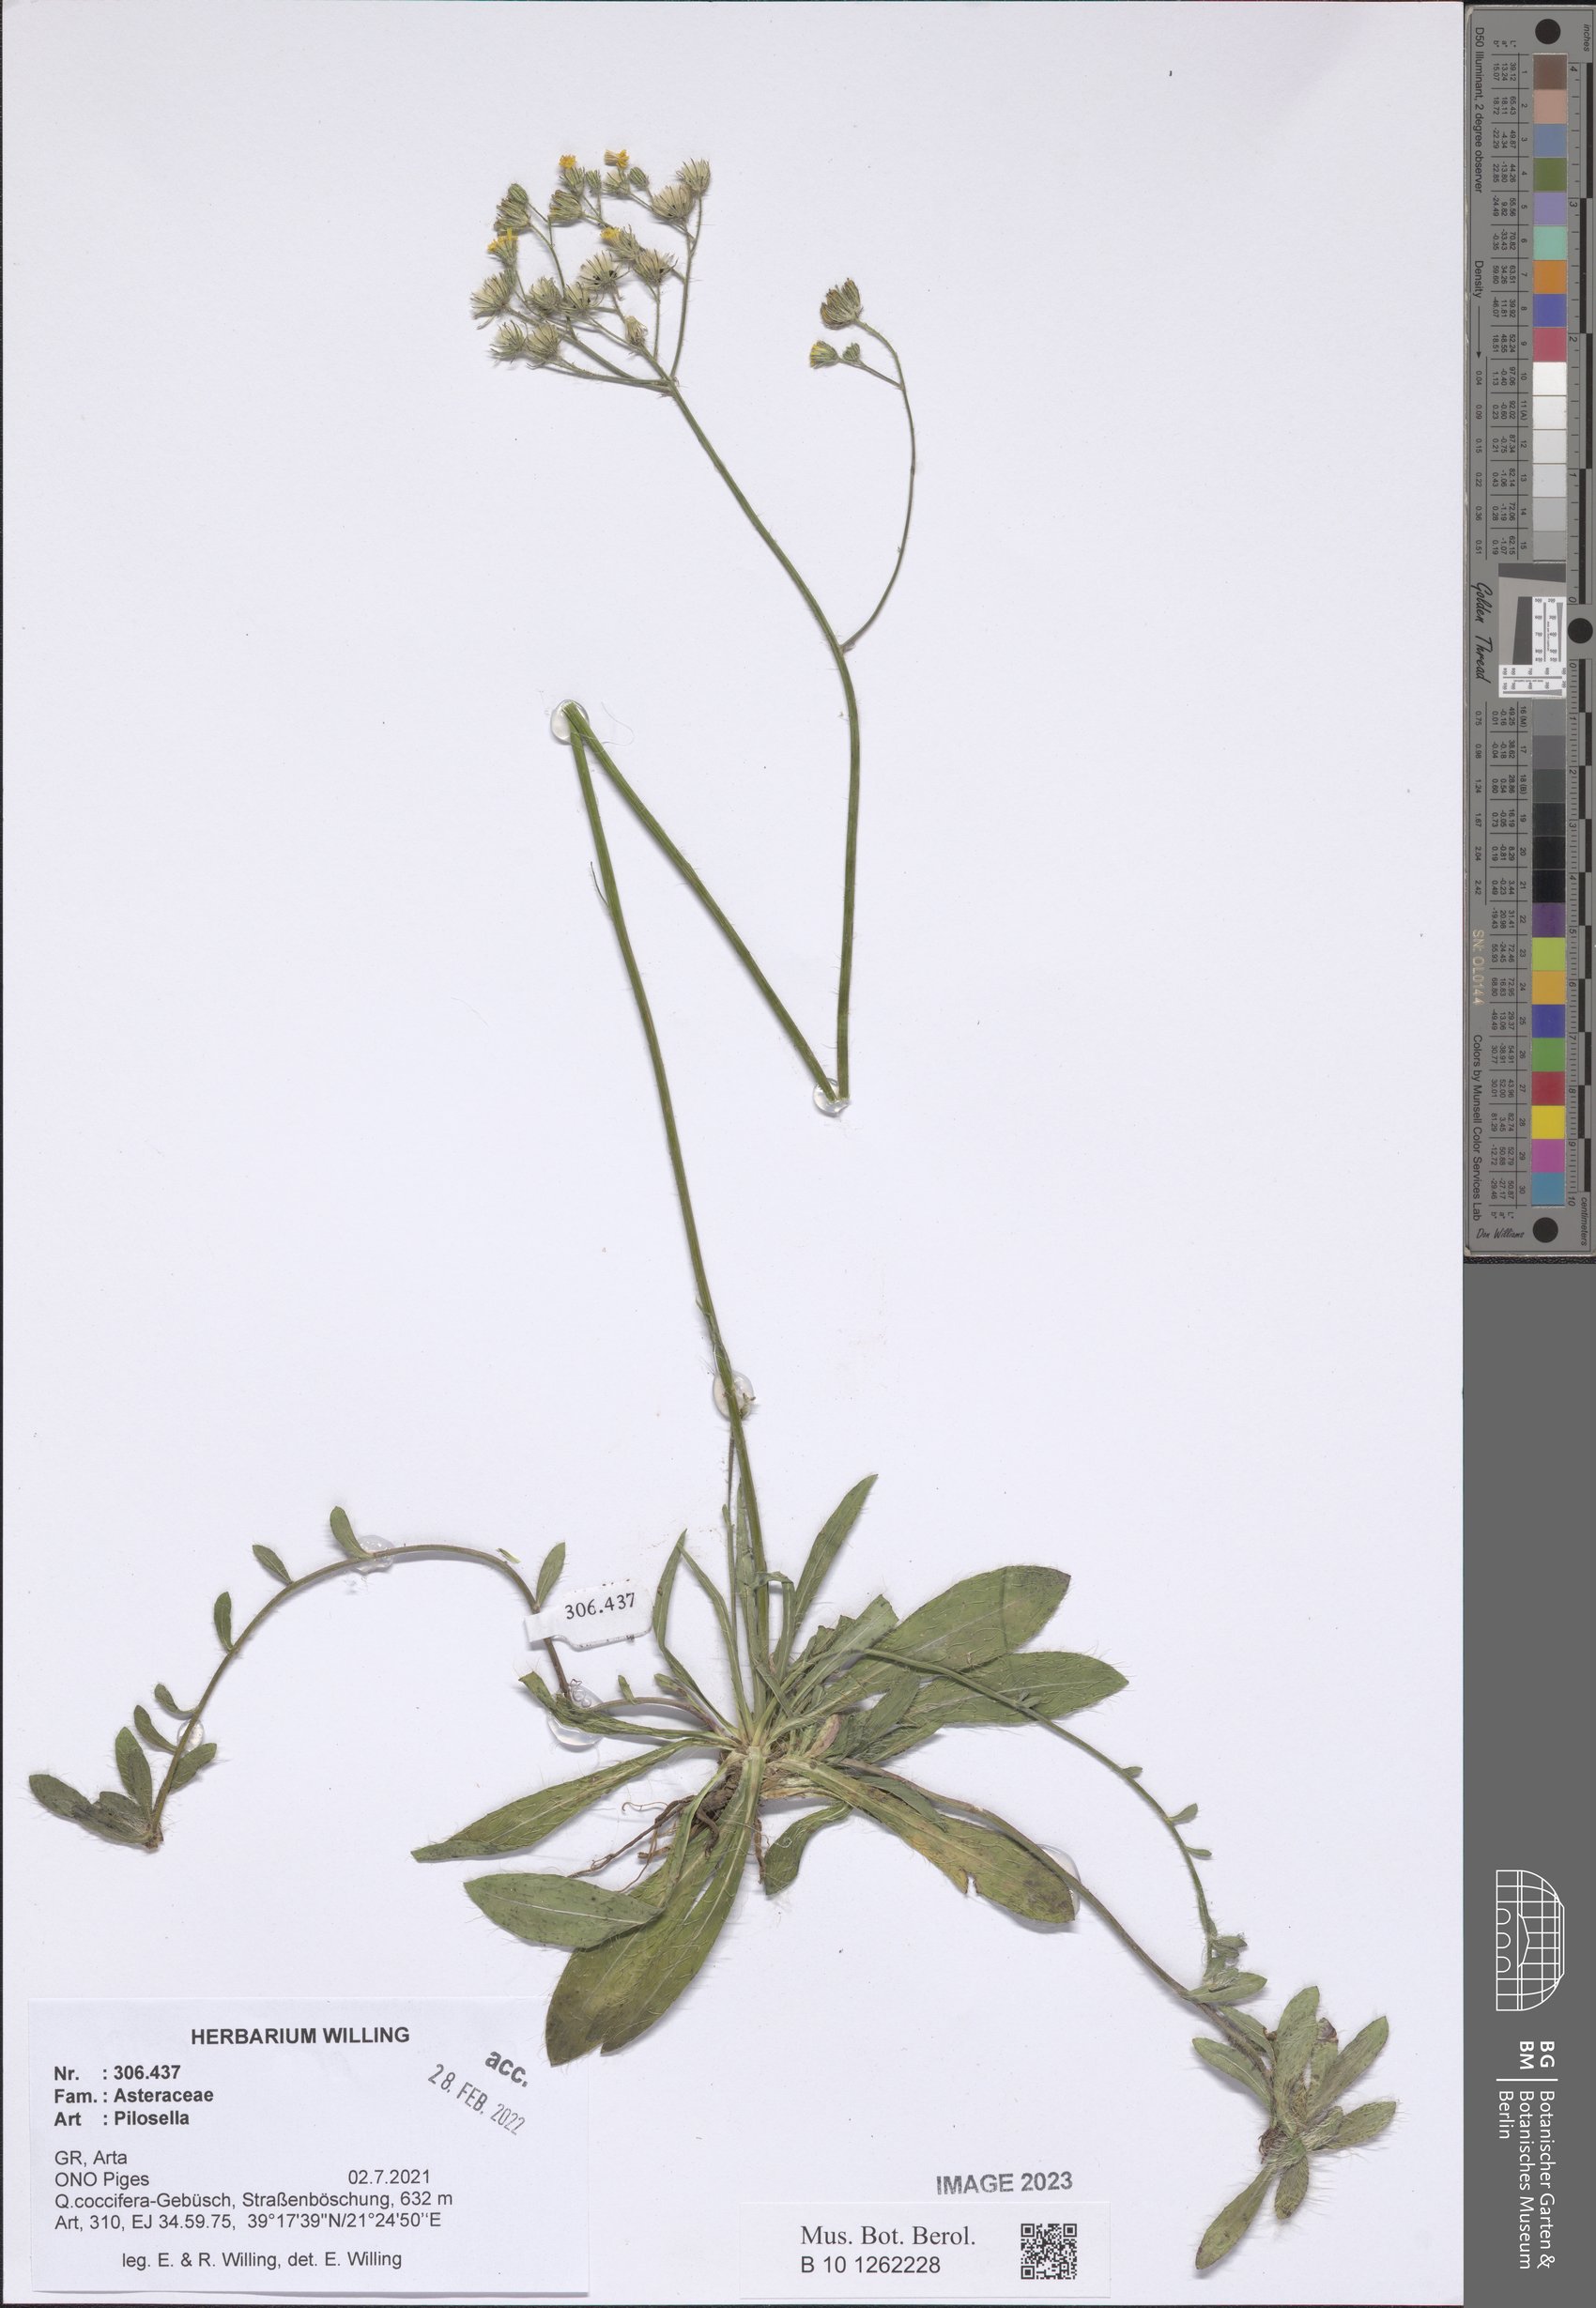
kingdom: Plantae
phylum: Tracheophyta
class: Magnoliopsida
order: Asterales
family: Asteraceae
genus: Pilosella
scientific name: Pilosella
